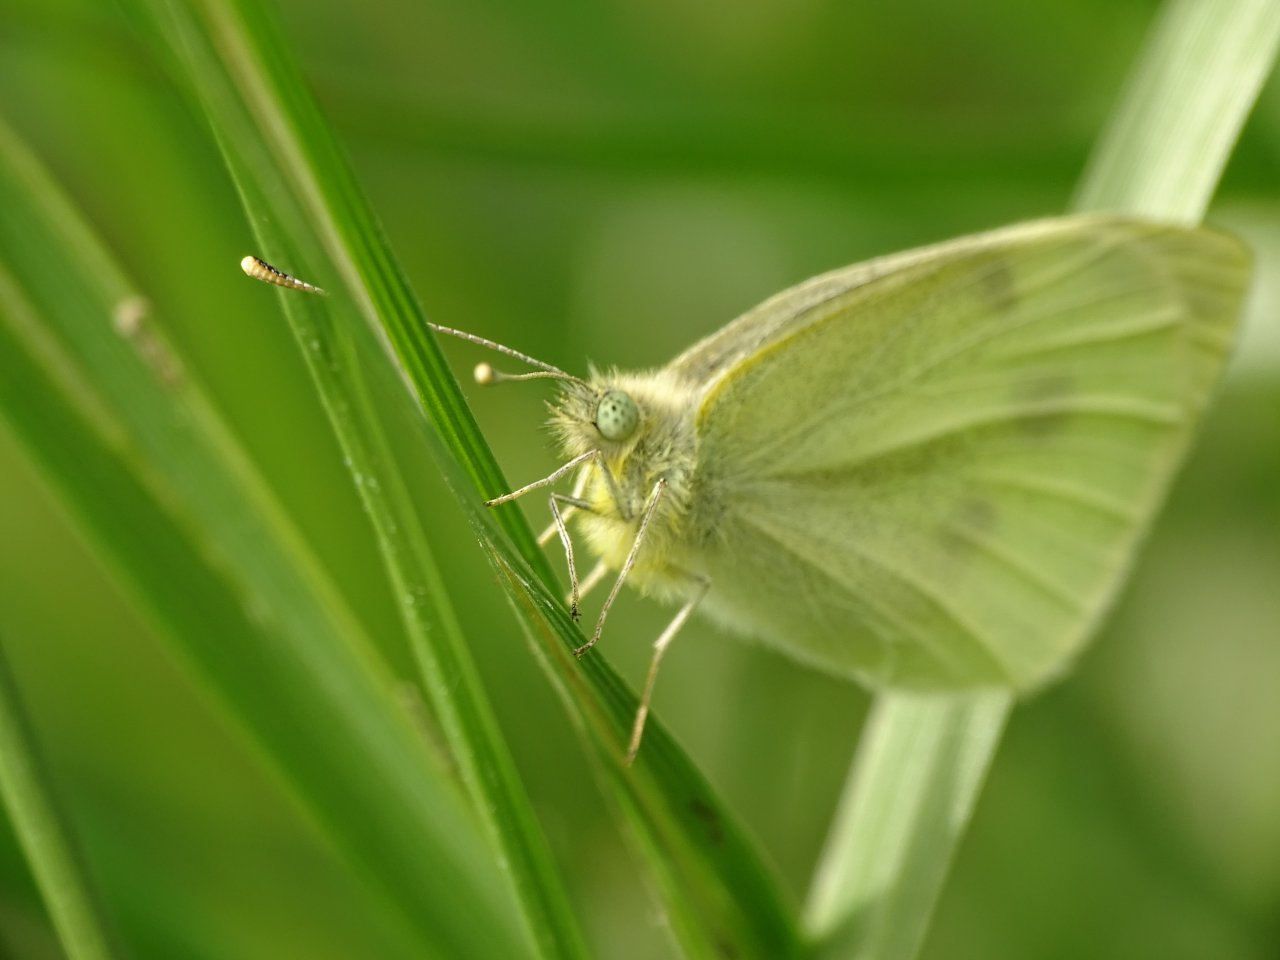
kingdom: Animalia
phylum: Arthropoda
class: Insecta
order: Lepidoptera
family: Pieridae
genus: Pieris
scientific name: Pieris rapae
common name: Cabbage White
